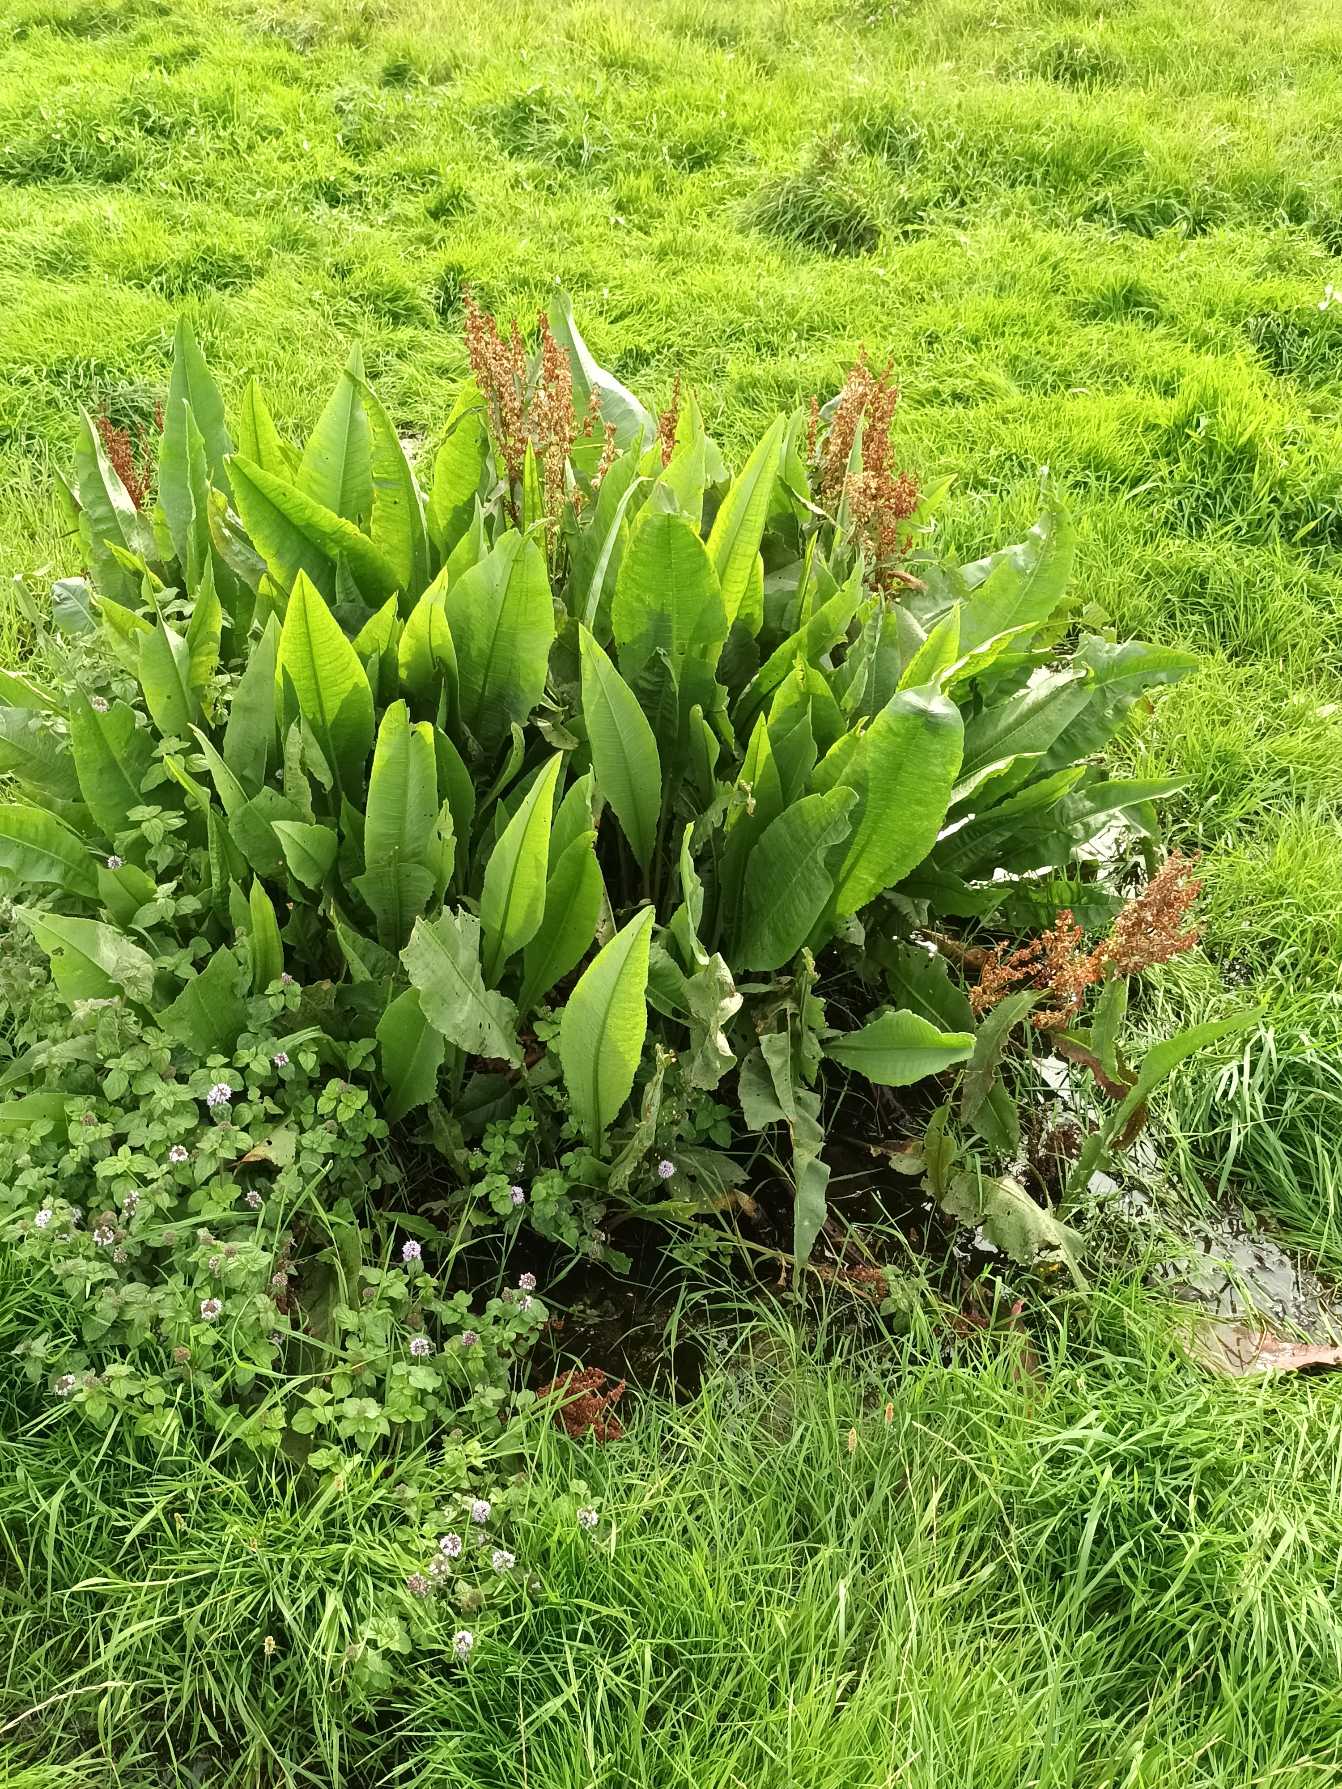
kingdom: Plantae
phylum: Tracheophyta
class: Magnoliopsida
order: Caryophyllales
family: Polygonaceae
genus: Rumex
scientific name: Rumex hydrolapathum
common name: Vand-skræppe
